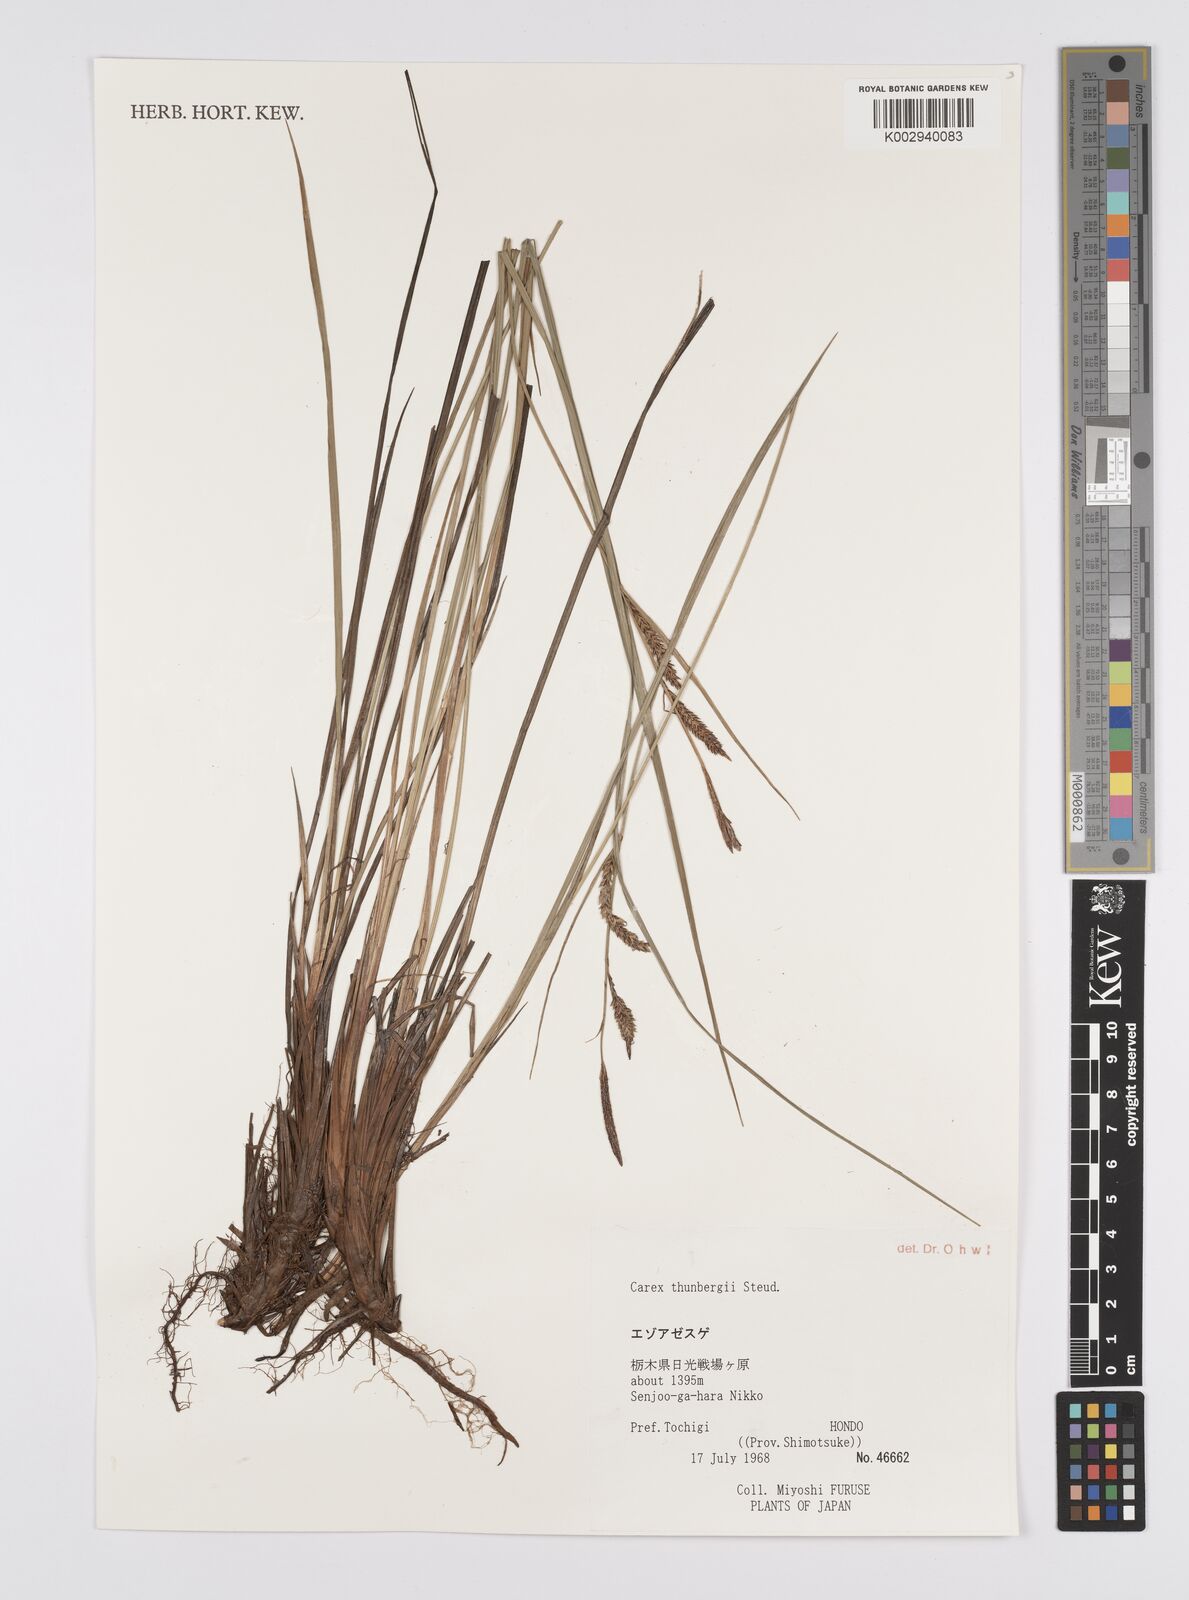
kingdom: Plantae
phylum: Tracheophyta
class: Liliopsida
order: Poales
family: Cyperaceae
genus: Carex
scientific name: Carex thunbergii
